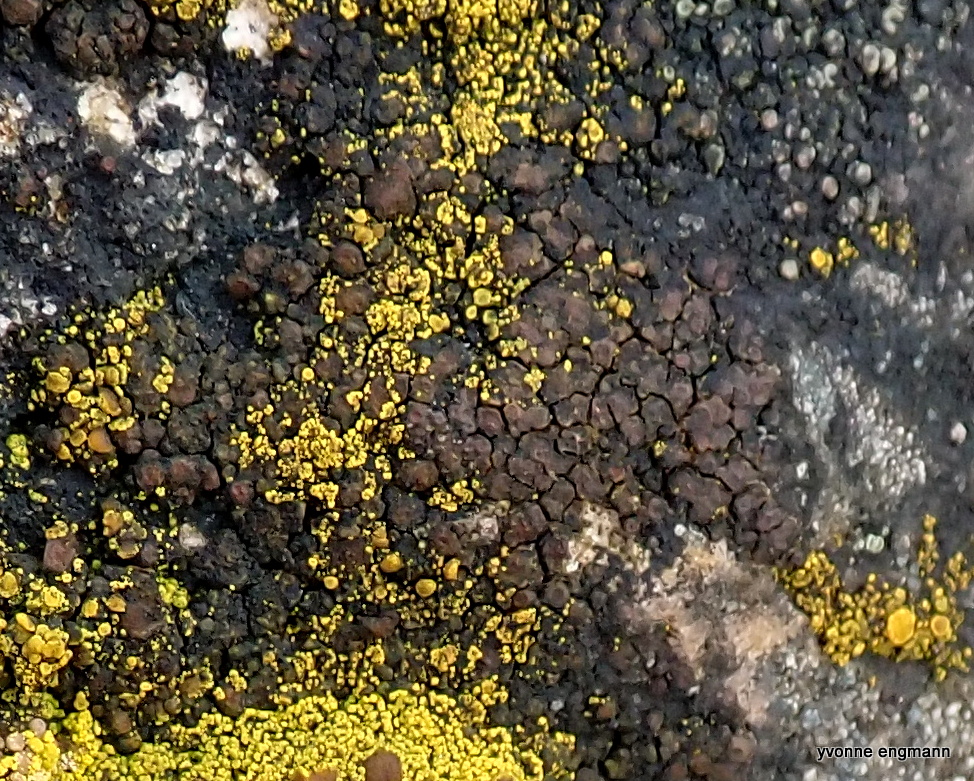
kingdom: Fungi
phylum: Ascomycota
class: Lecanoromycetes
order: Acarosporales
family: Acarosporaceae
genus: Acarospora
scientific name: Acarospora fuscata
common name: brun småsporelav
